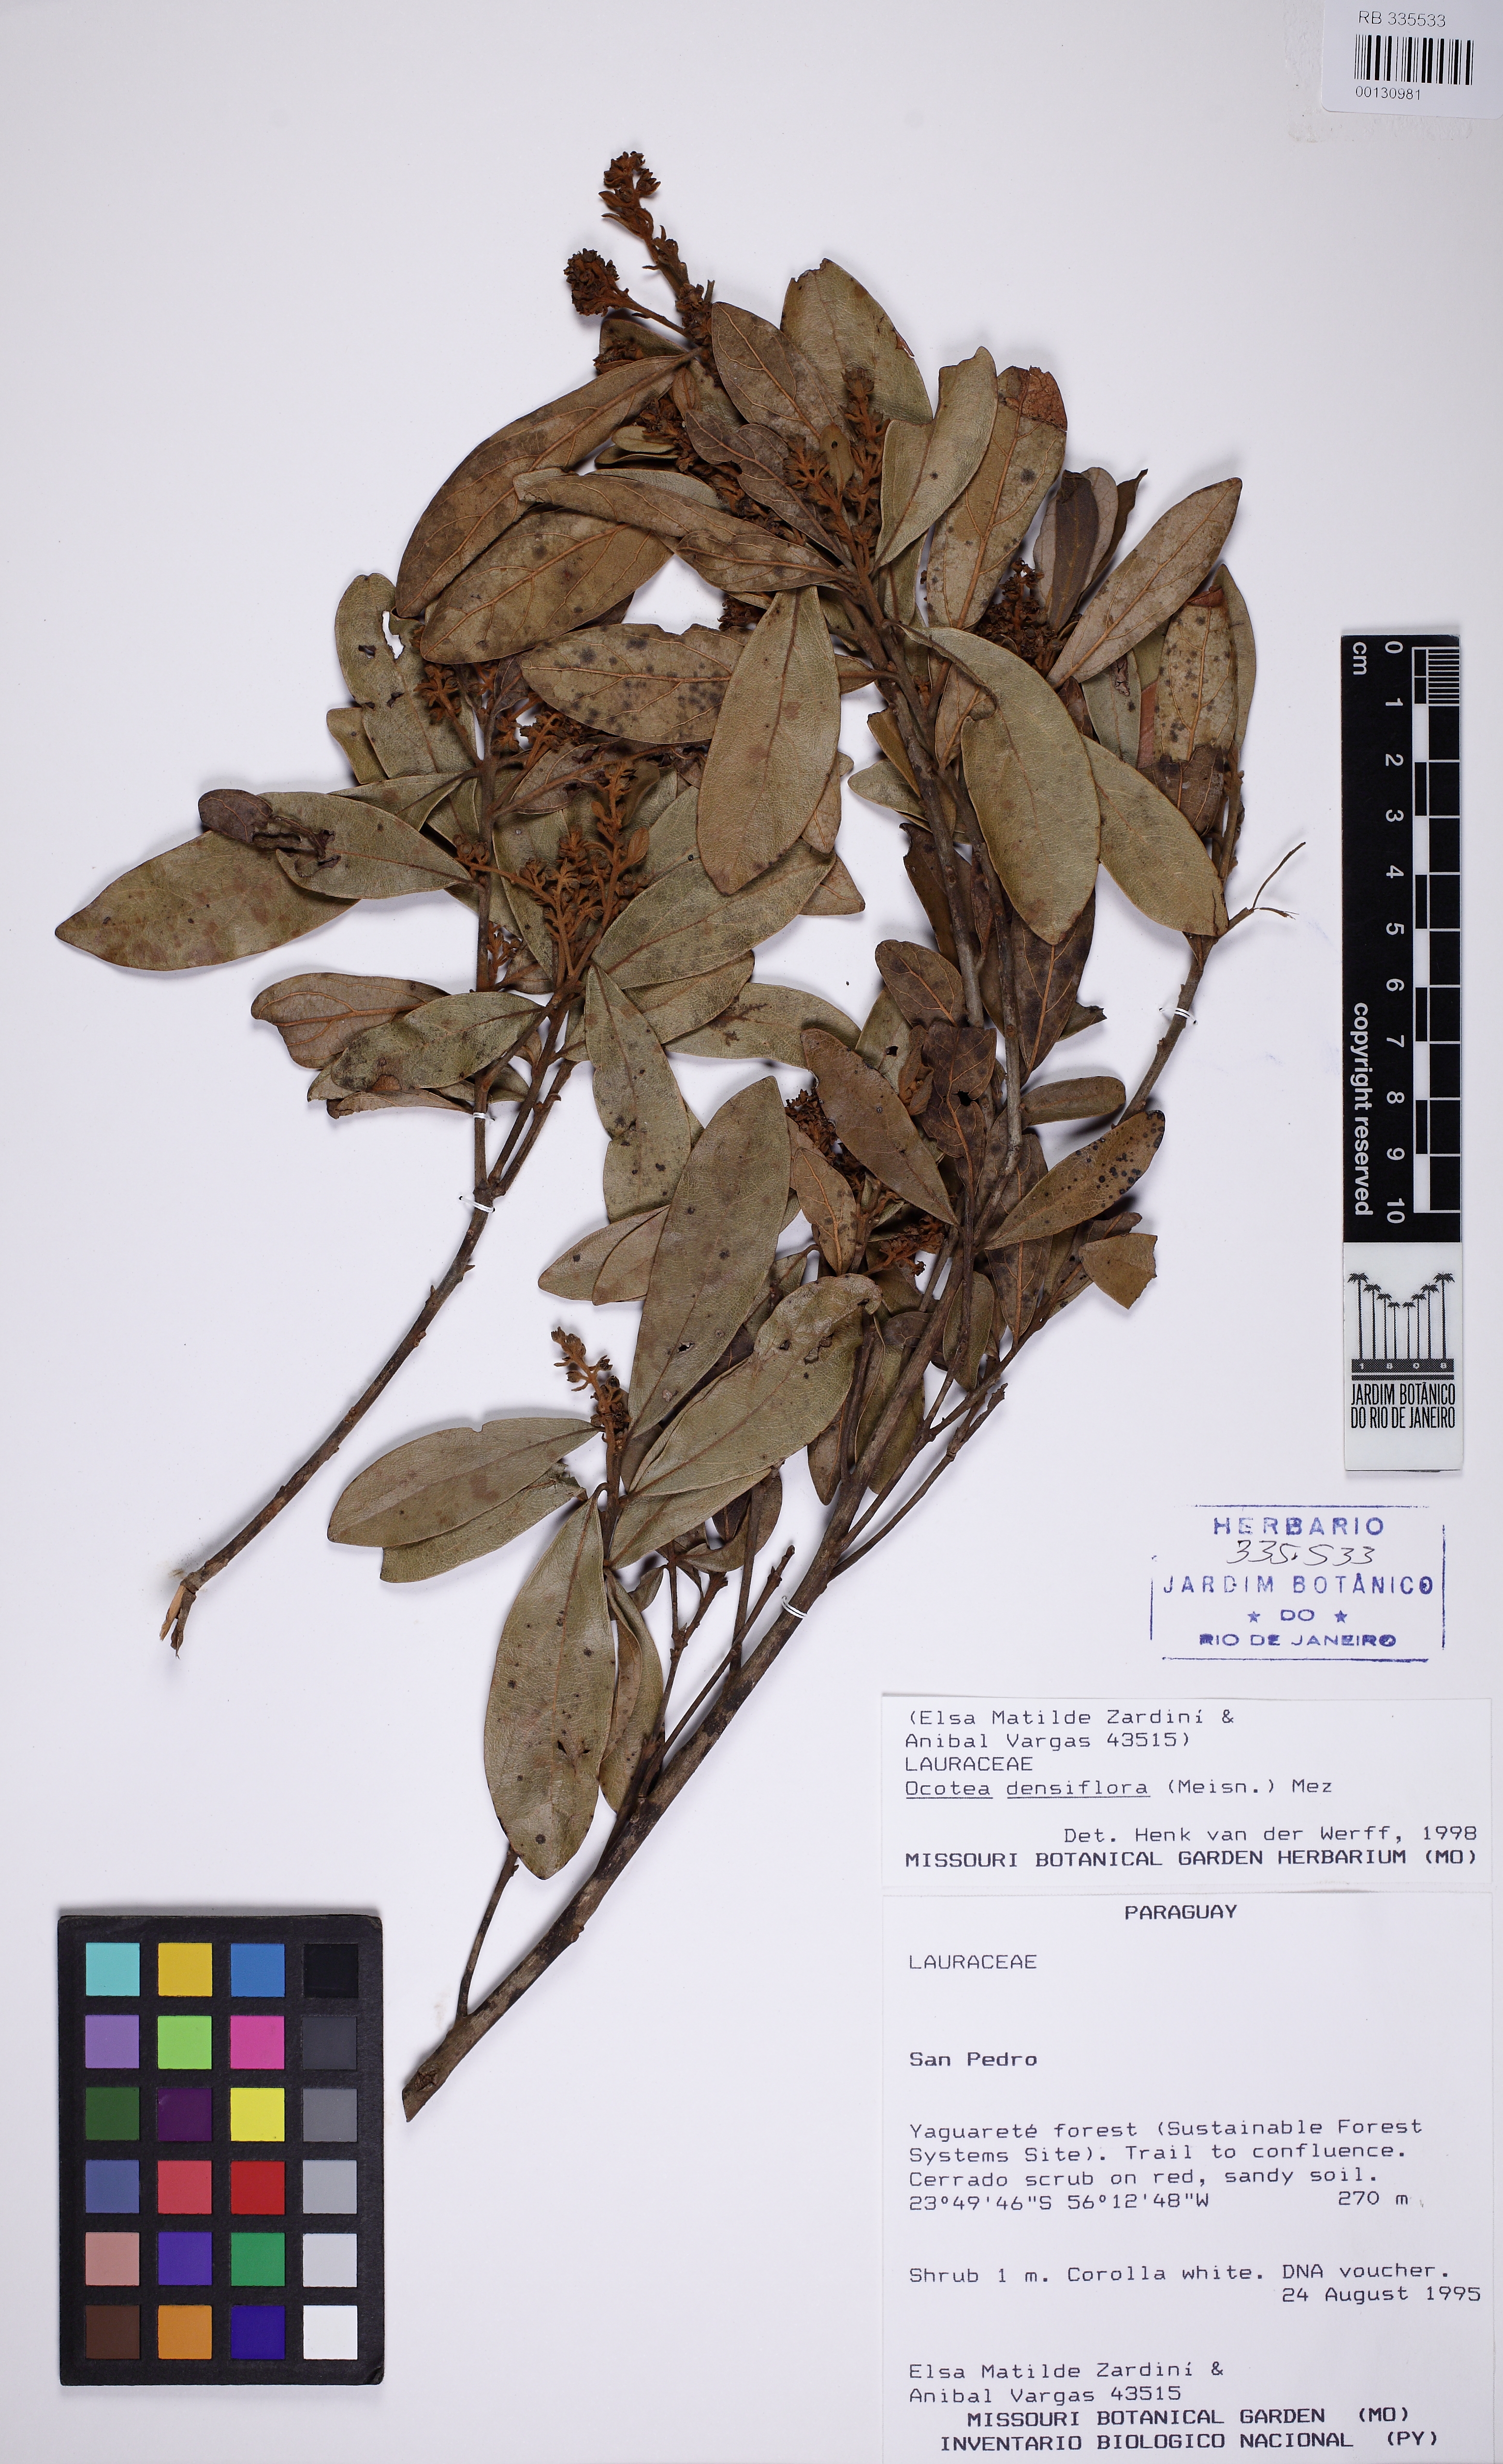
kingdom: Plantae
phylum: Tracheophyta
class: Magnoliopsida
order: Laurales
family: Lauraceae
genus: Ocotea
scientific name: Ocotea densiflora
